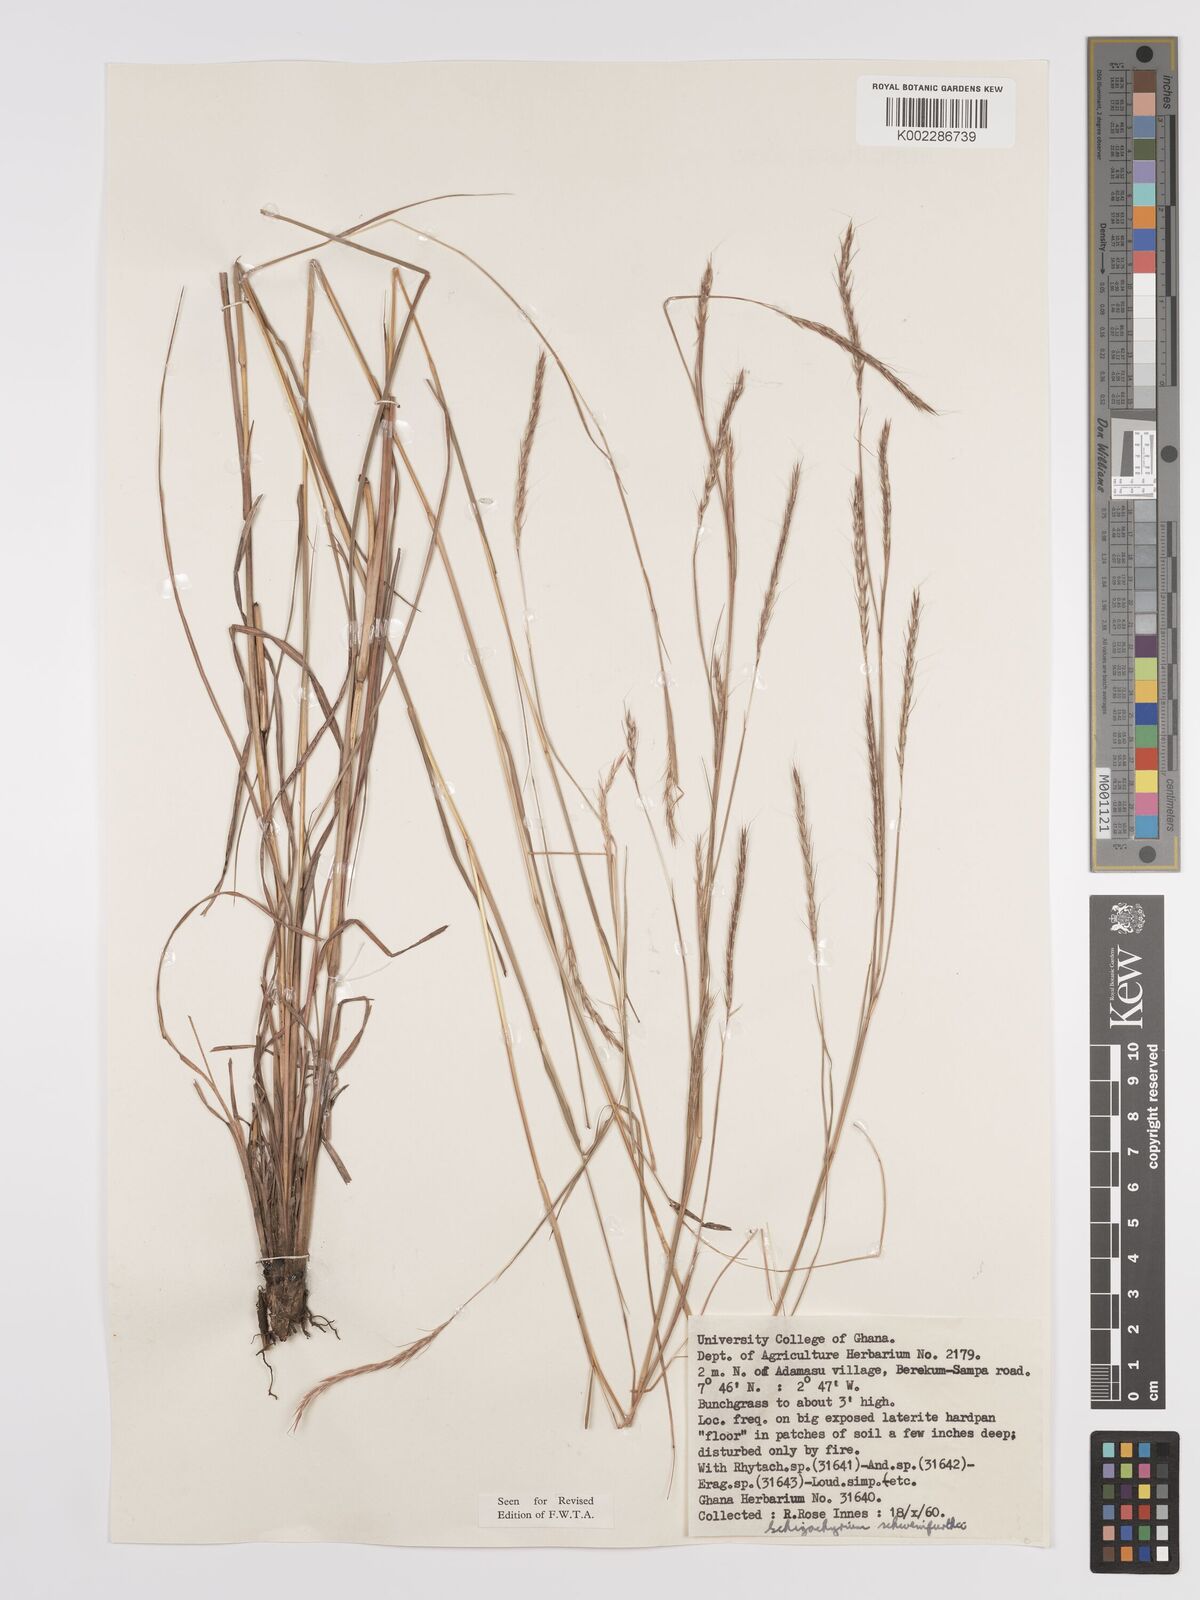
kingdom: Plantae
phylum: Tracheophyta
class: Liliopsida
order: Poales
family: Poaceae
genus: Andropogon
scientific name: Andropogon schweinfurthii
